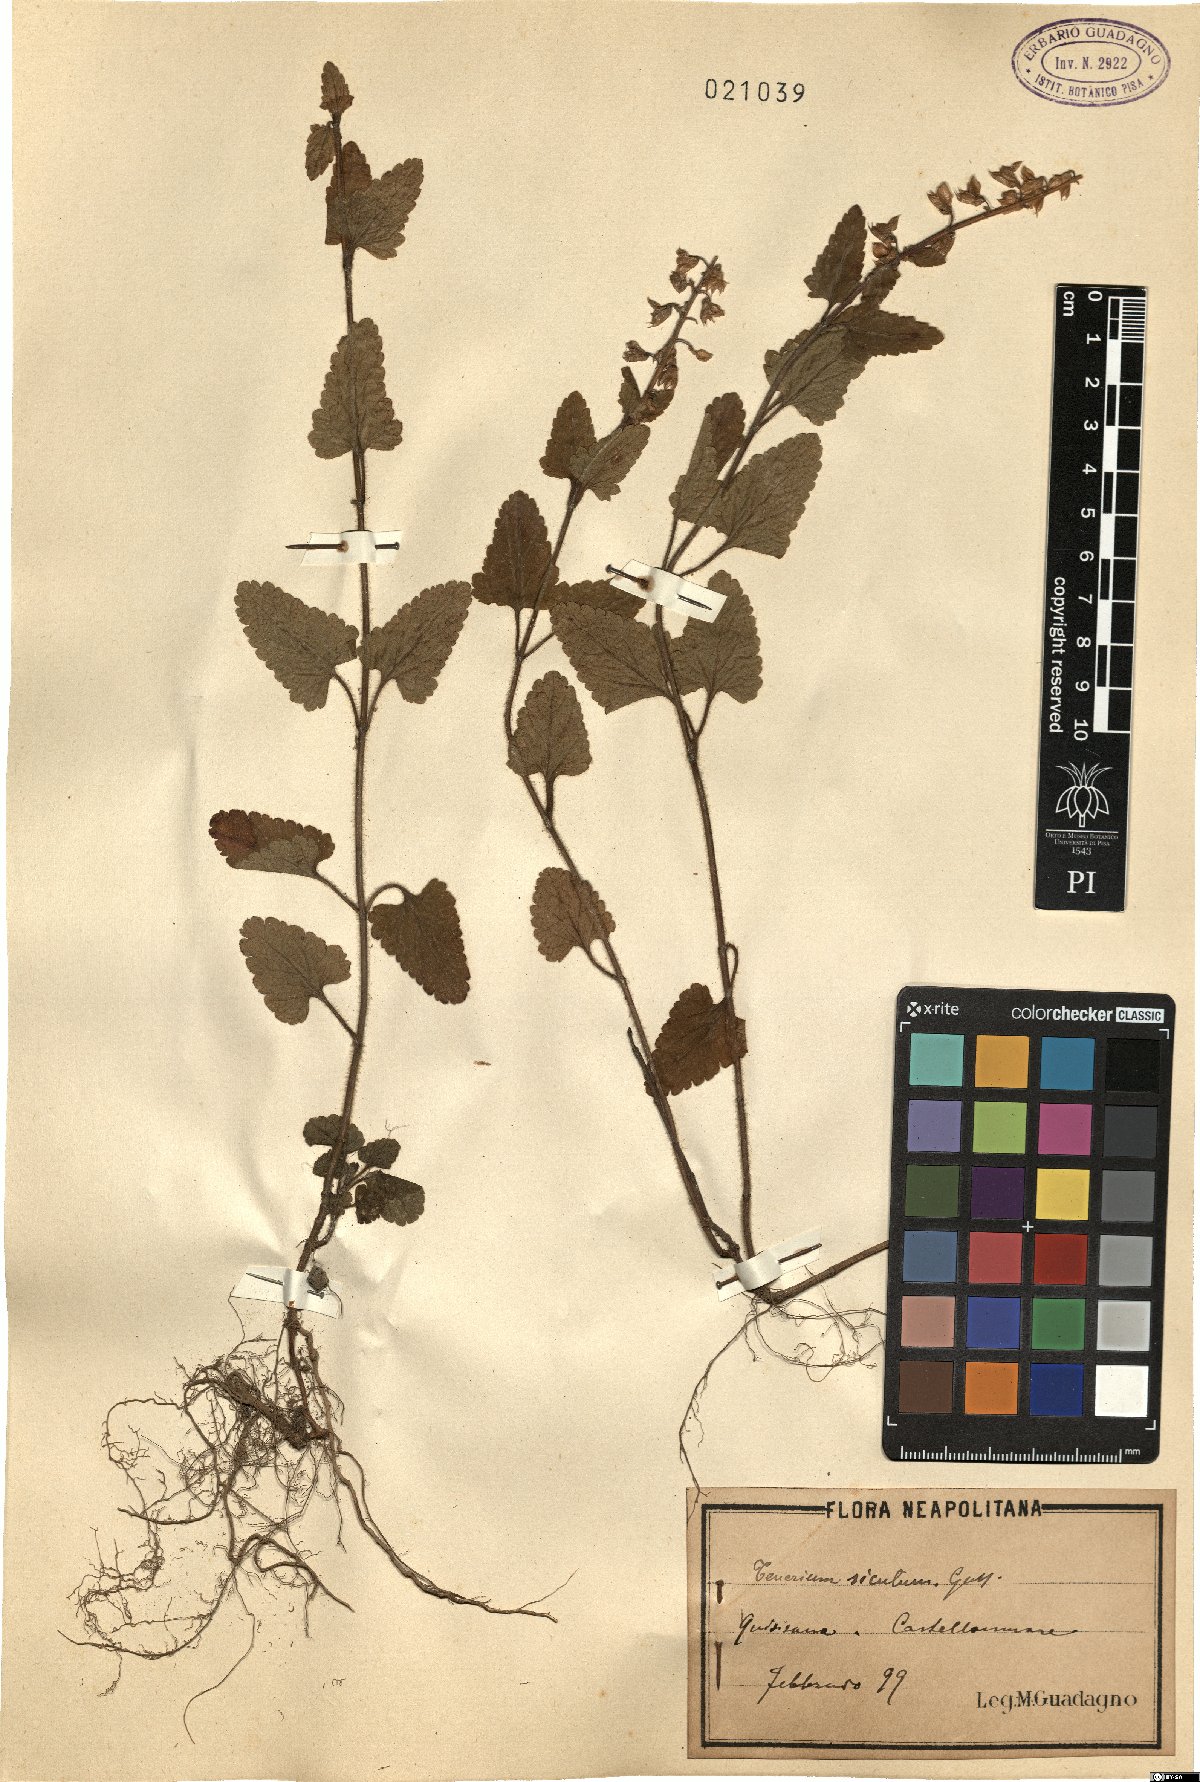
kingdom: Plantae
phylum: Tracheophyta
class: Magnoliopsida
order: Lamiales
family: Lamiaceae
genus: Teucrium
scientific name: Teucrium siculum
